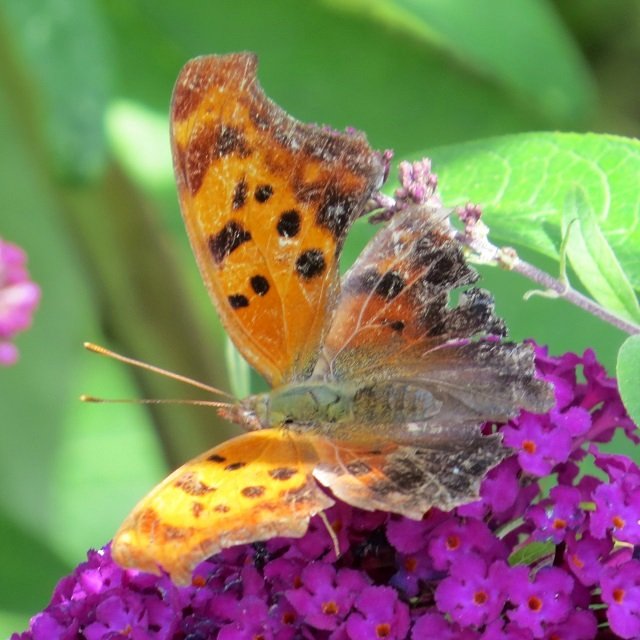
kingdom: Animalia
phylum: Arthropoda
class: Insecta
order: Lepidoptera
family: Nymphalidae
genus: Polygonia
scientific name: Polygonia interrogationis
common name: Question Mark
